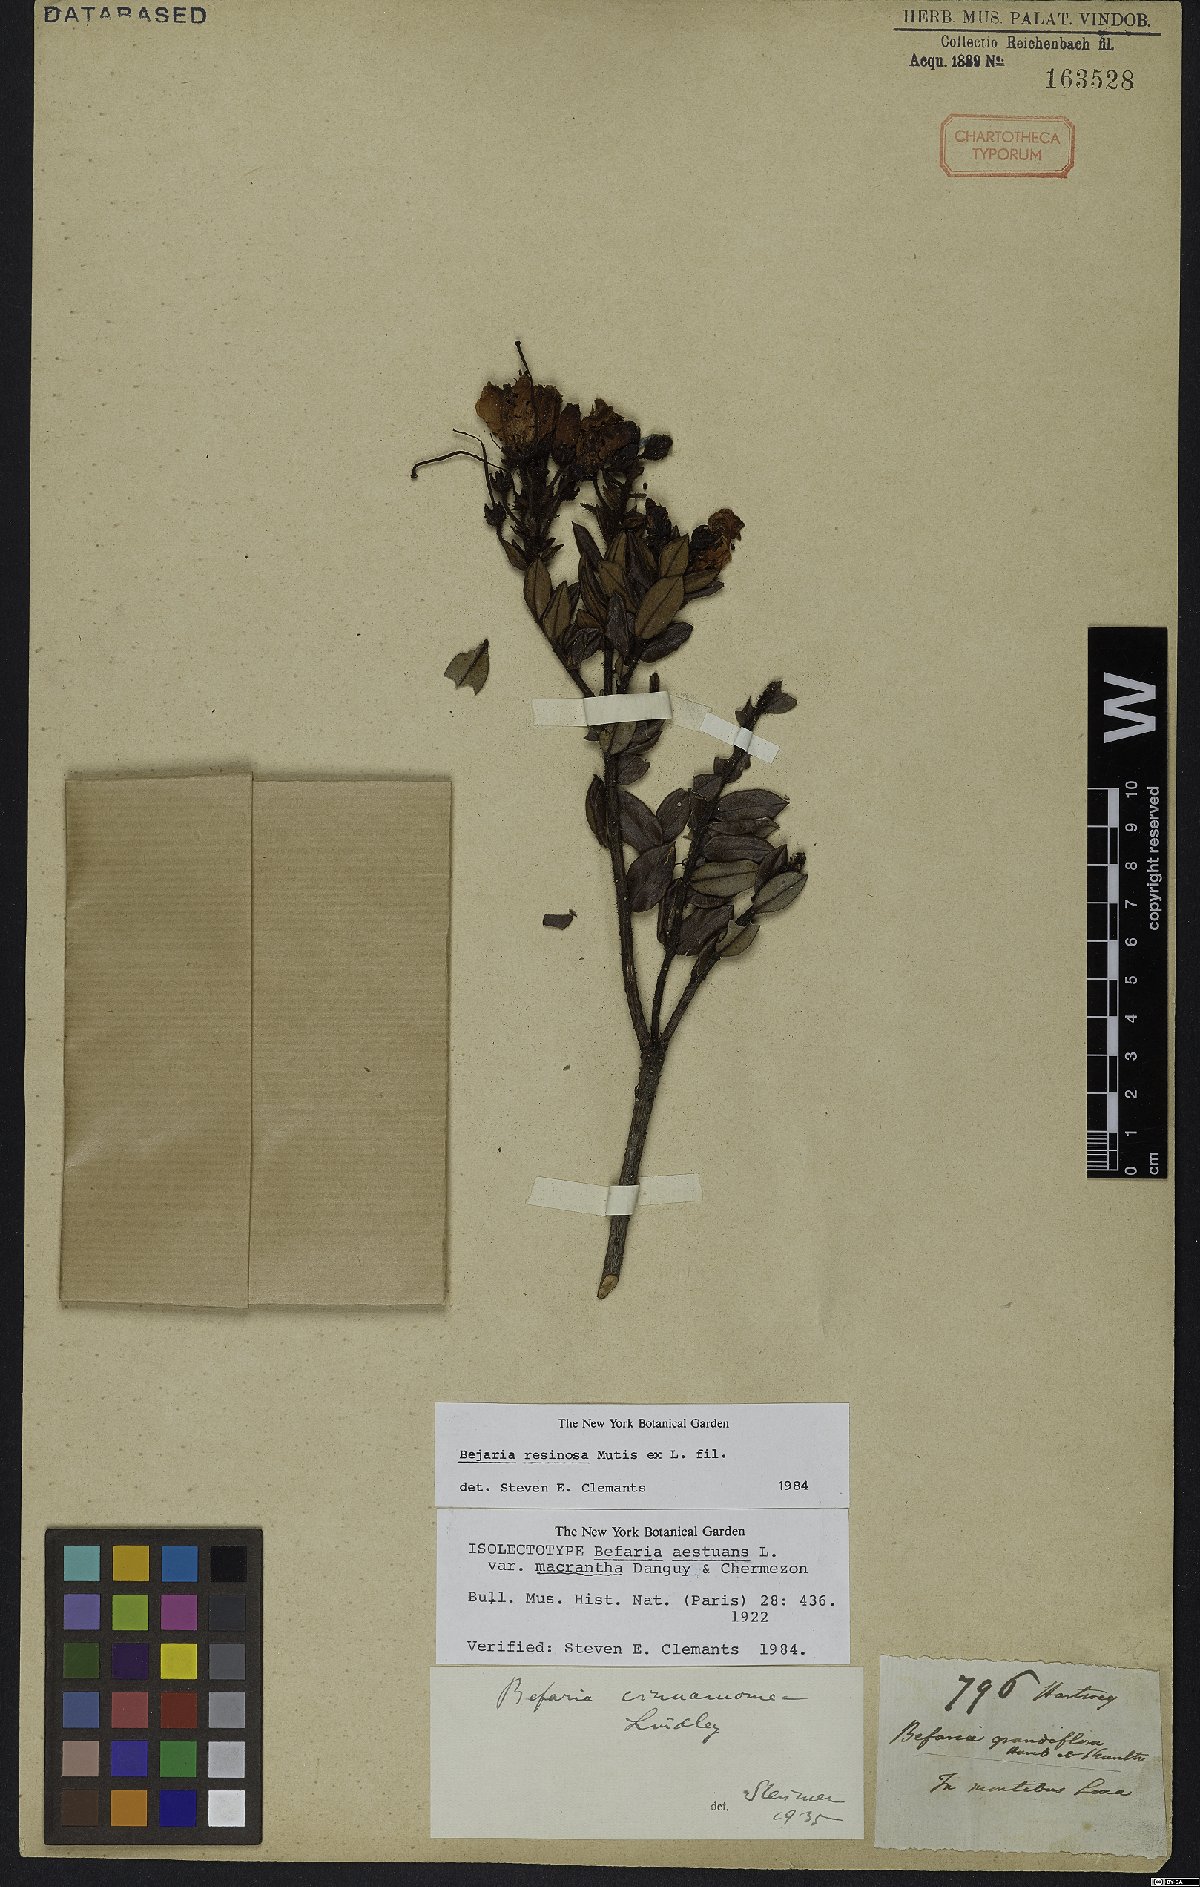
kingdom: Plantae
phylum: Tracheophyta
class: Magnoliopsida
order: Ericales
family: Ericaceae
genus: Bejaria
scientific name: Bejaria resinosa
